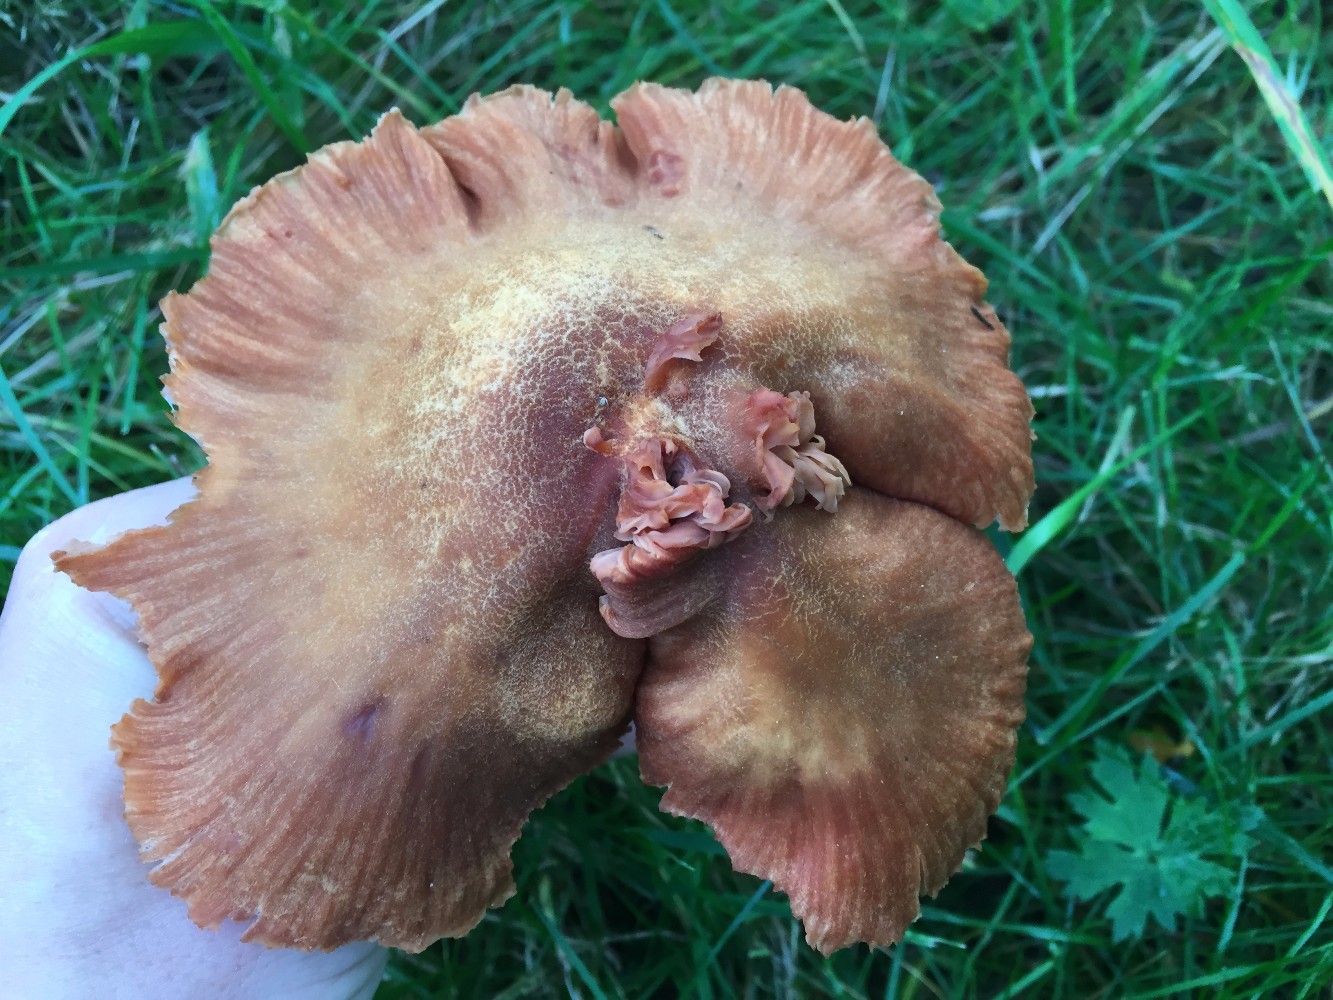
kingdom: Fungi
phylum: Basidiomycota
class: Agaricomycetes
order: Agaricales
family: Hydnangiaceae
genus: Laccaria
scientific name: Laccaria proxima
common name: stor ametysthat
